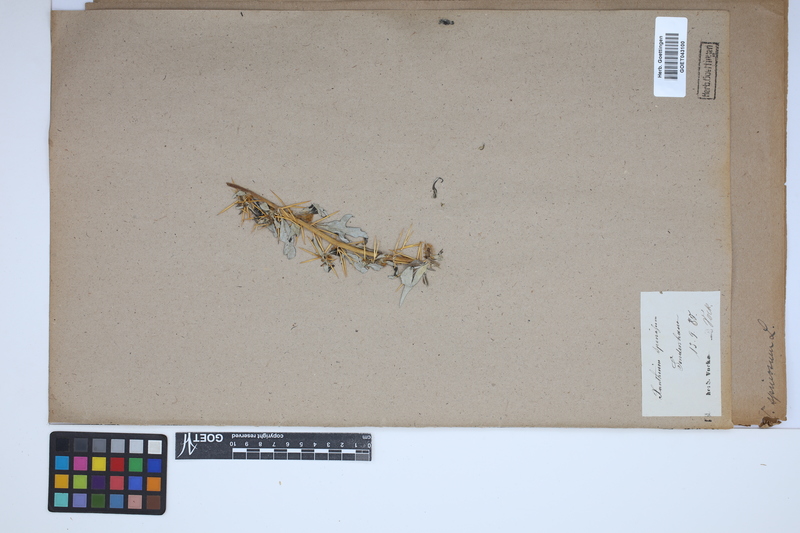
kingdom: Plantae
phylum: Tracheophyta
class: Magnoliopsida
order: Asterales
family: Asteraceae
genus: Xanthium
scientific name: Xanthium spinosum
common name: Spiny cocklebur
